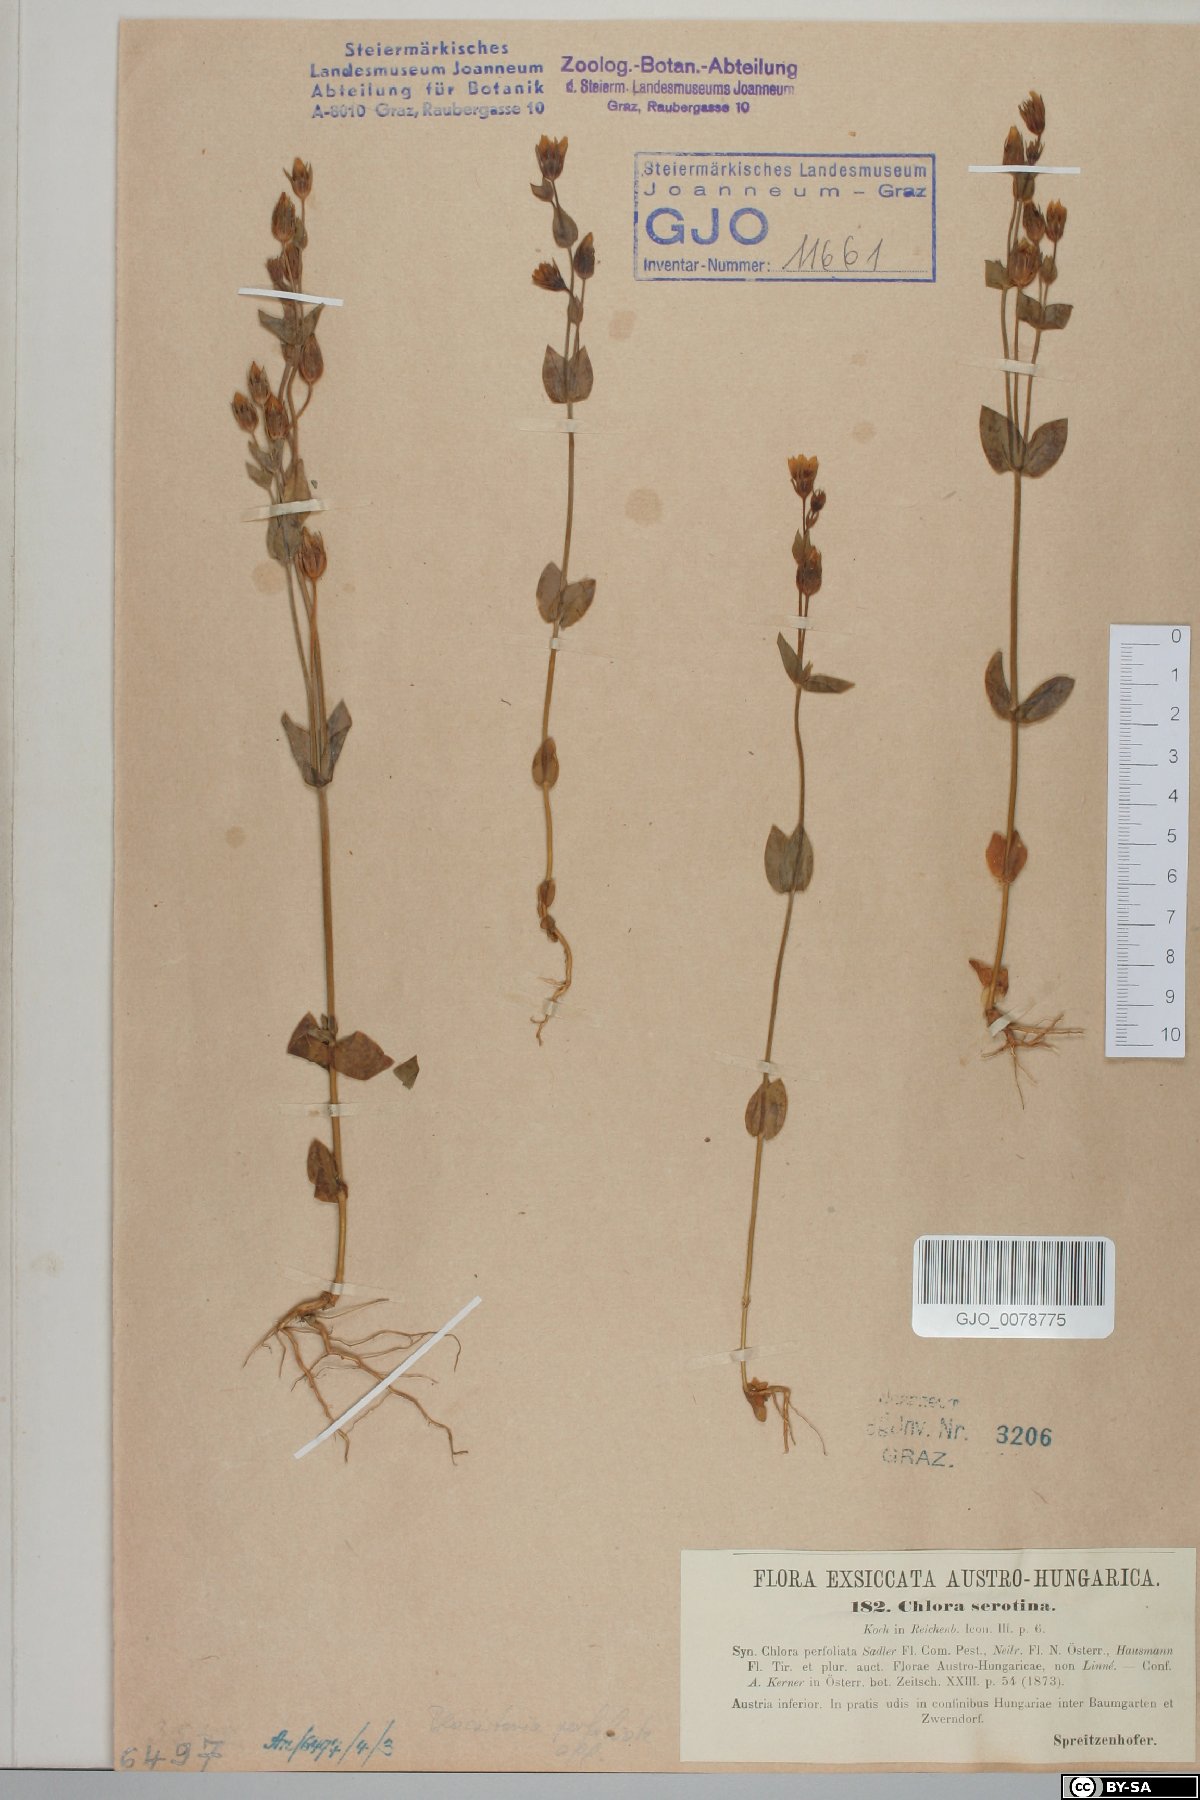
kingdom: Plantae
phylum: Tracheophyta
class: Magnoliopsida
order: Gentianales
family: Gentianaceae
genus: Blackstonia
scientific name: Blackstonia acuminata
